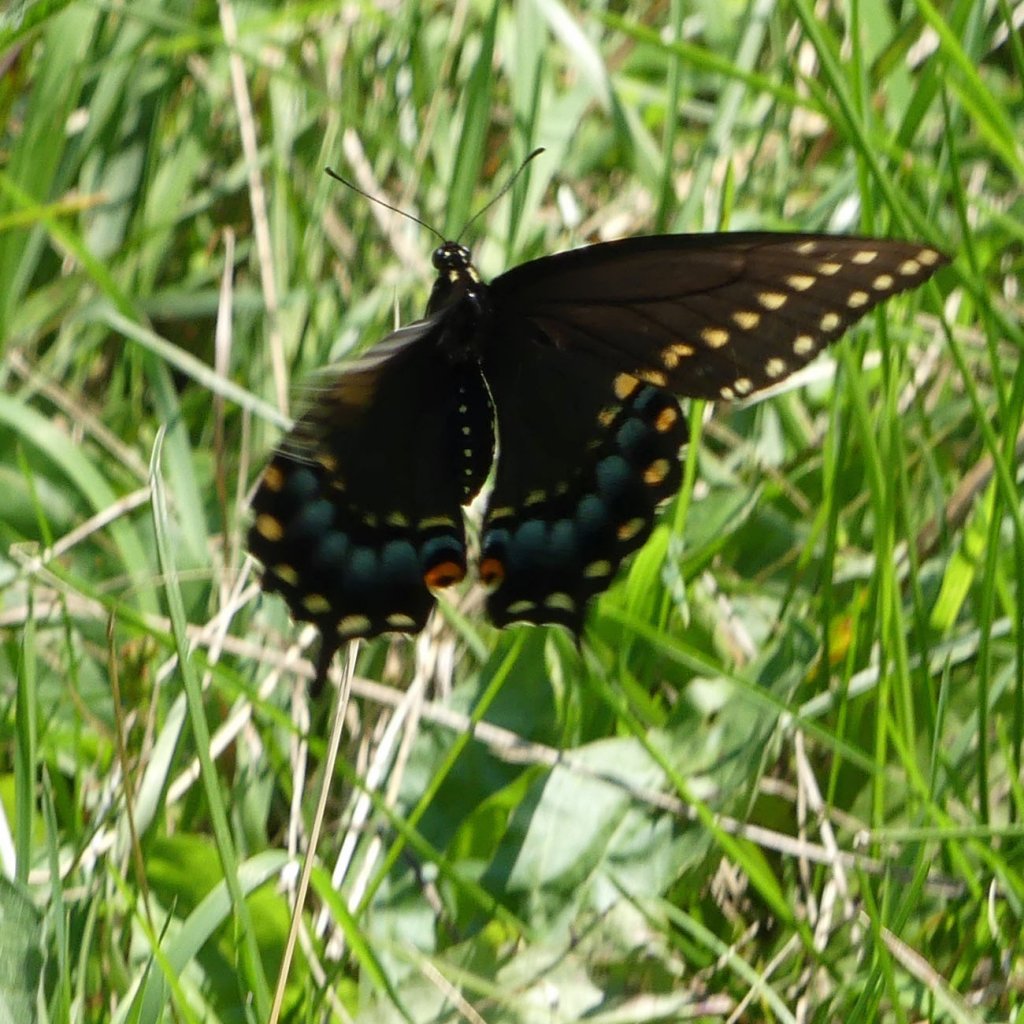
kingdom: Animalia
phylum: Arthropoda
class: Insecta
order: Lepidoptera
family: Papilionidae
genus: Papilio
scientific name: Papilio polyxenes
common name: Black Swallowtail
